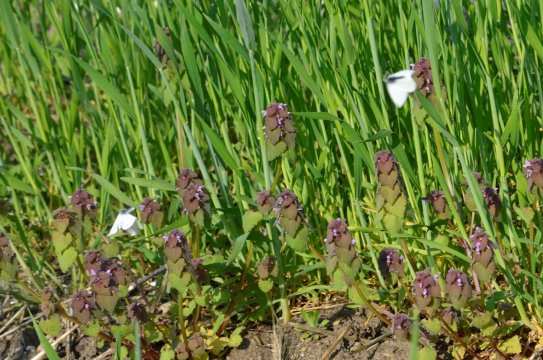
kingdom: Animalia
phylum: Arthropoda
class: Insecta
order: Lepidoptera
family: Pieridae
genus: Pieris
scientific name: Pieris rapae
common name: Cabbage White
